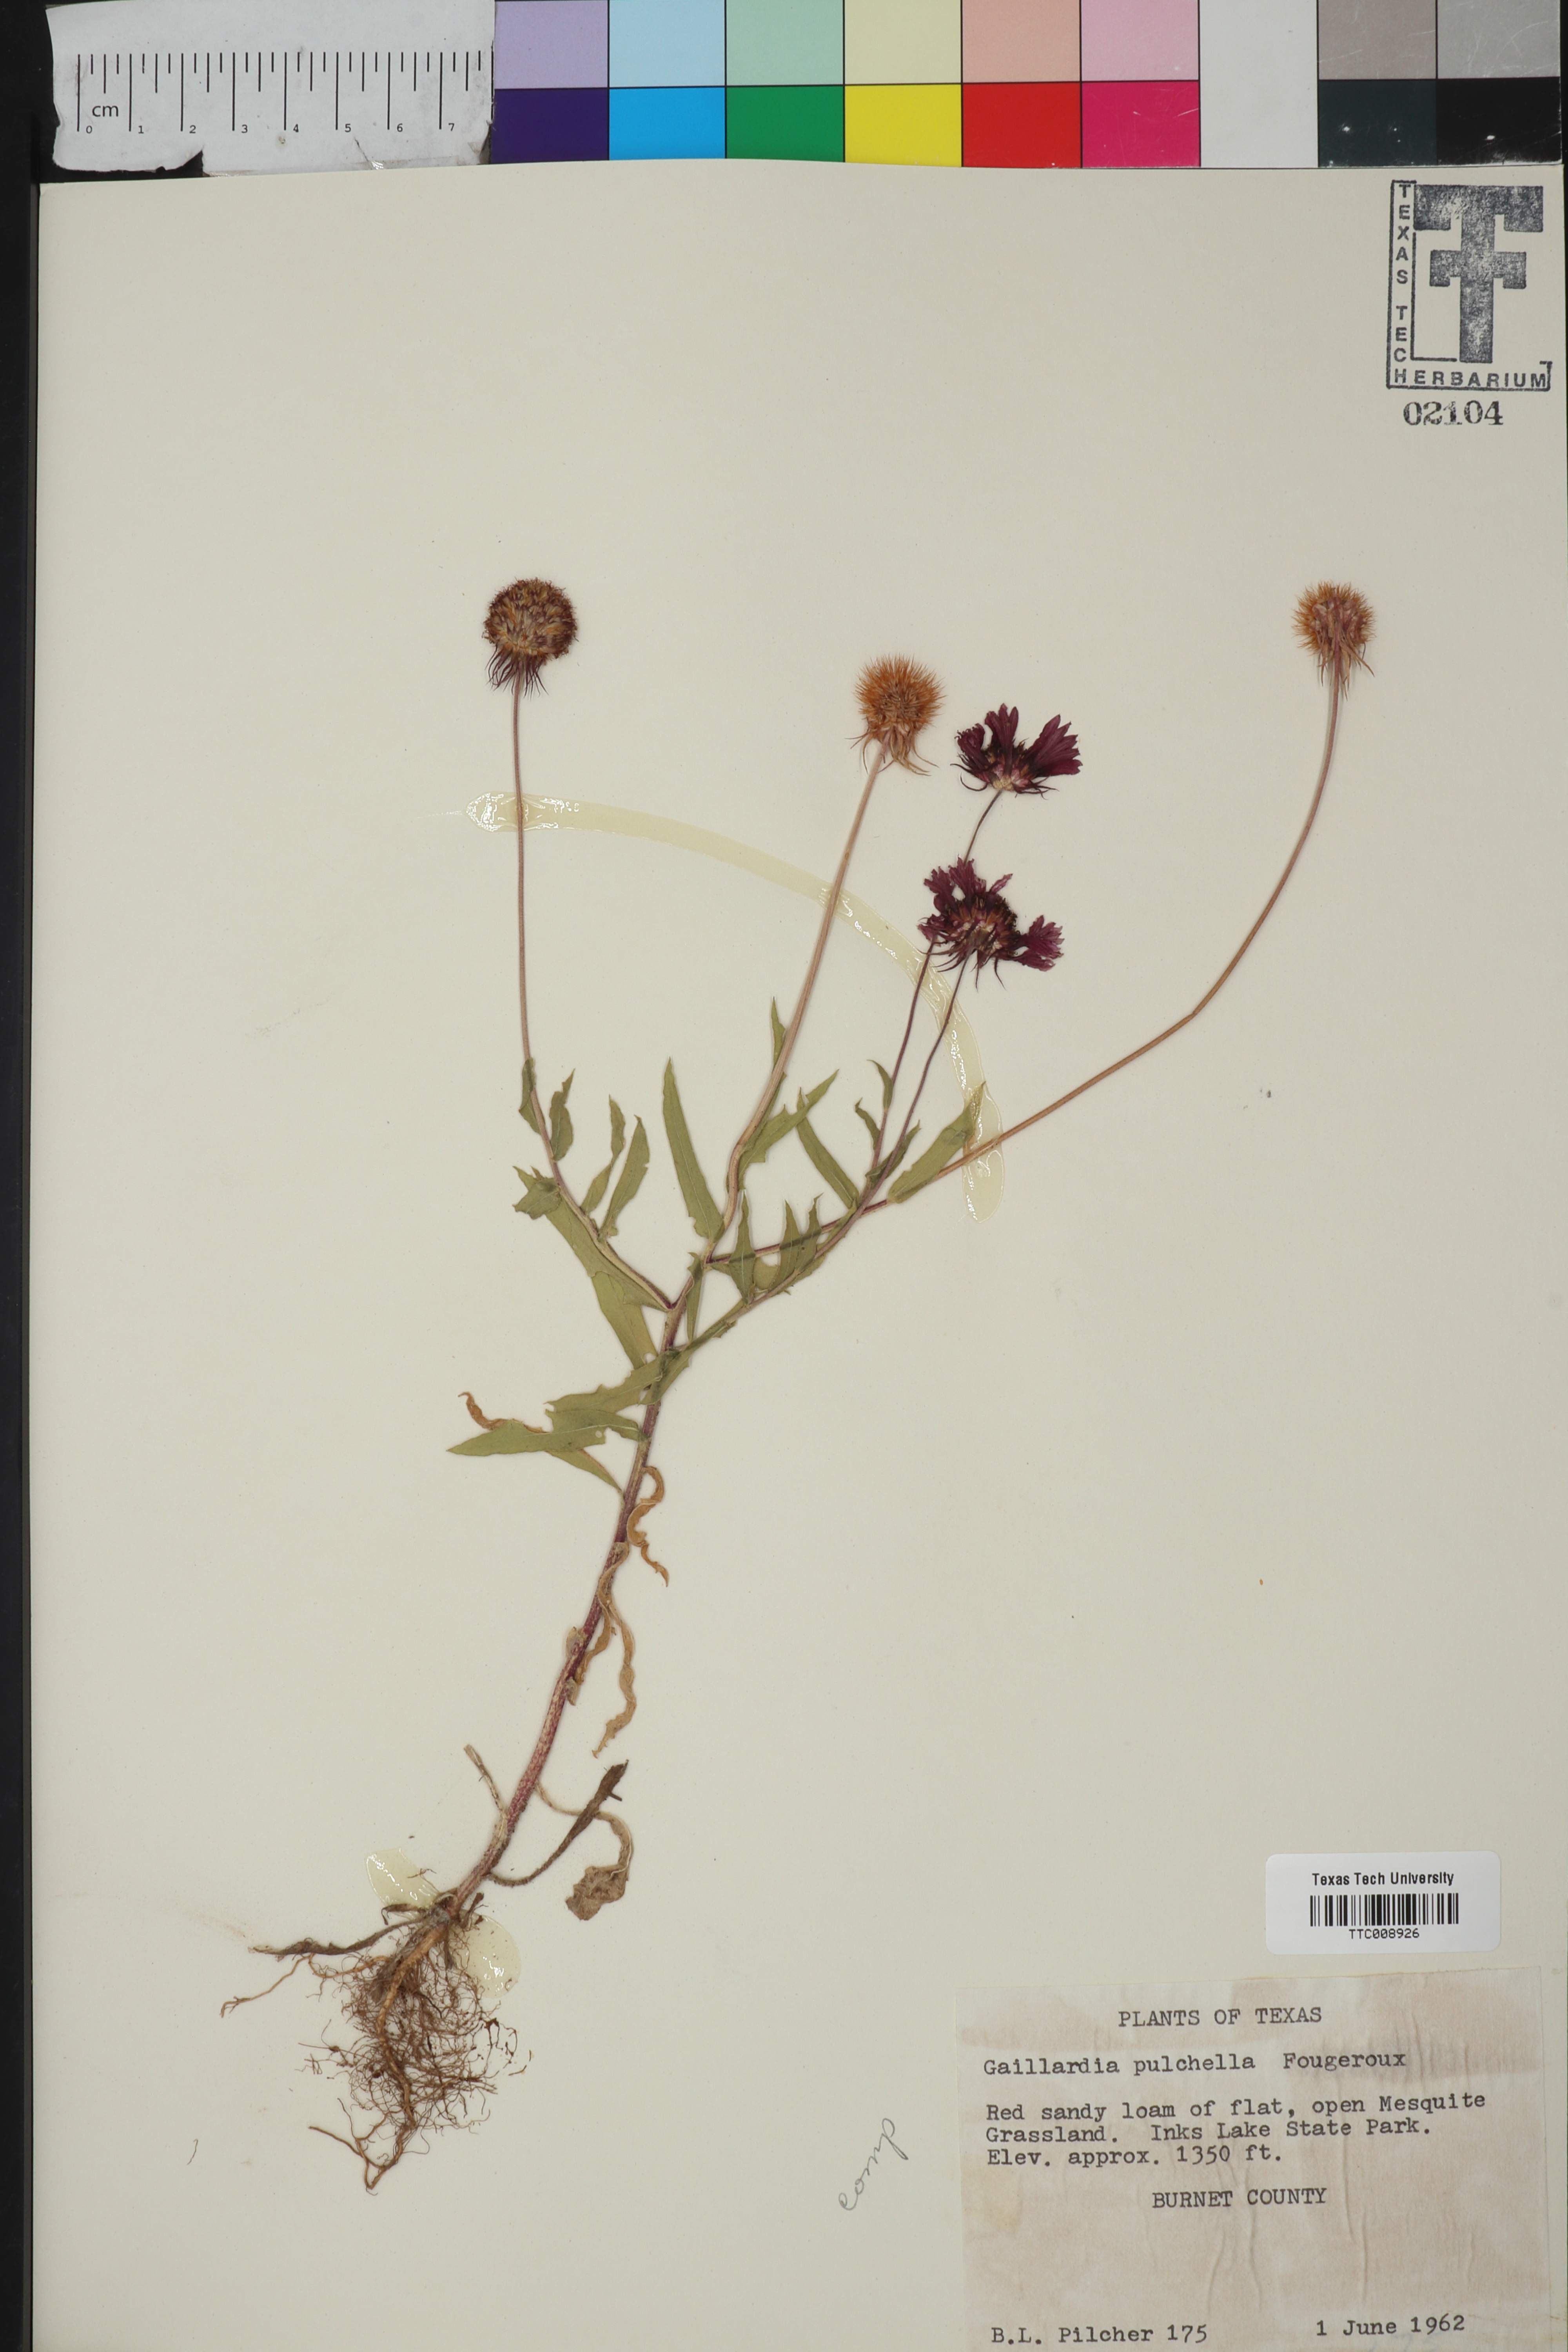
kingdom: Plantae
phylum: Tracheophyta
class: Magnoliopsida
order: Asterales
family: Asteraceae
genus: Gaillardia
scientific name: Gaillardia pulchella
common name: Firewheel
